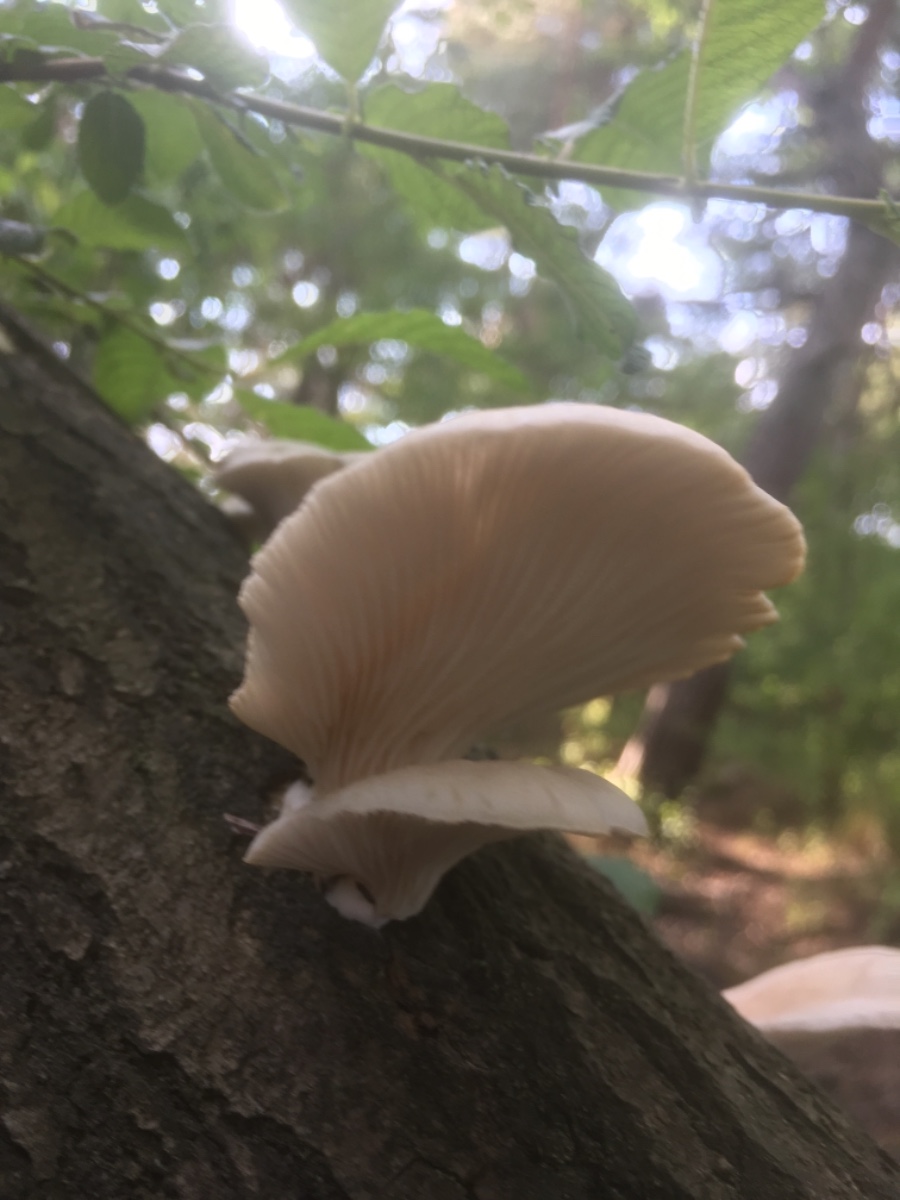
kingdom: Fungi
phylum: Basidiomycota
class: Agaricomycetes
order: Agaricales
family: Pleurotaceae
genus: Pleurotus
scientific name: Pleurotus pulmonarius
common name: sommer-østershat
